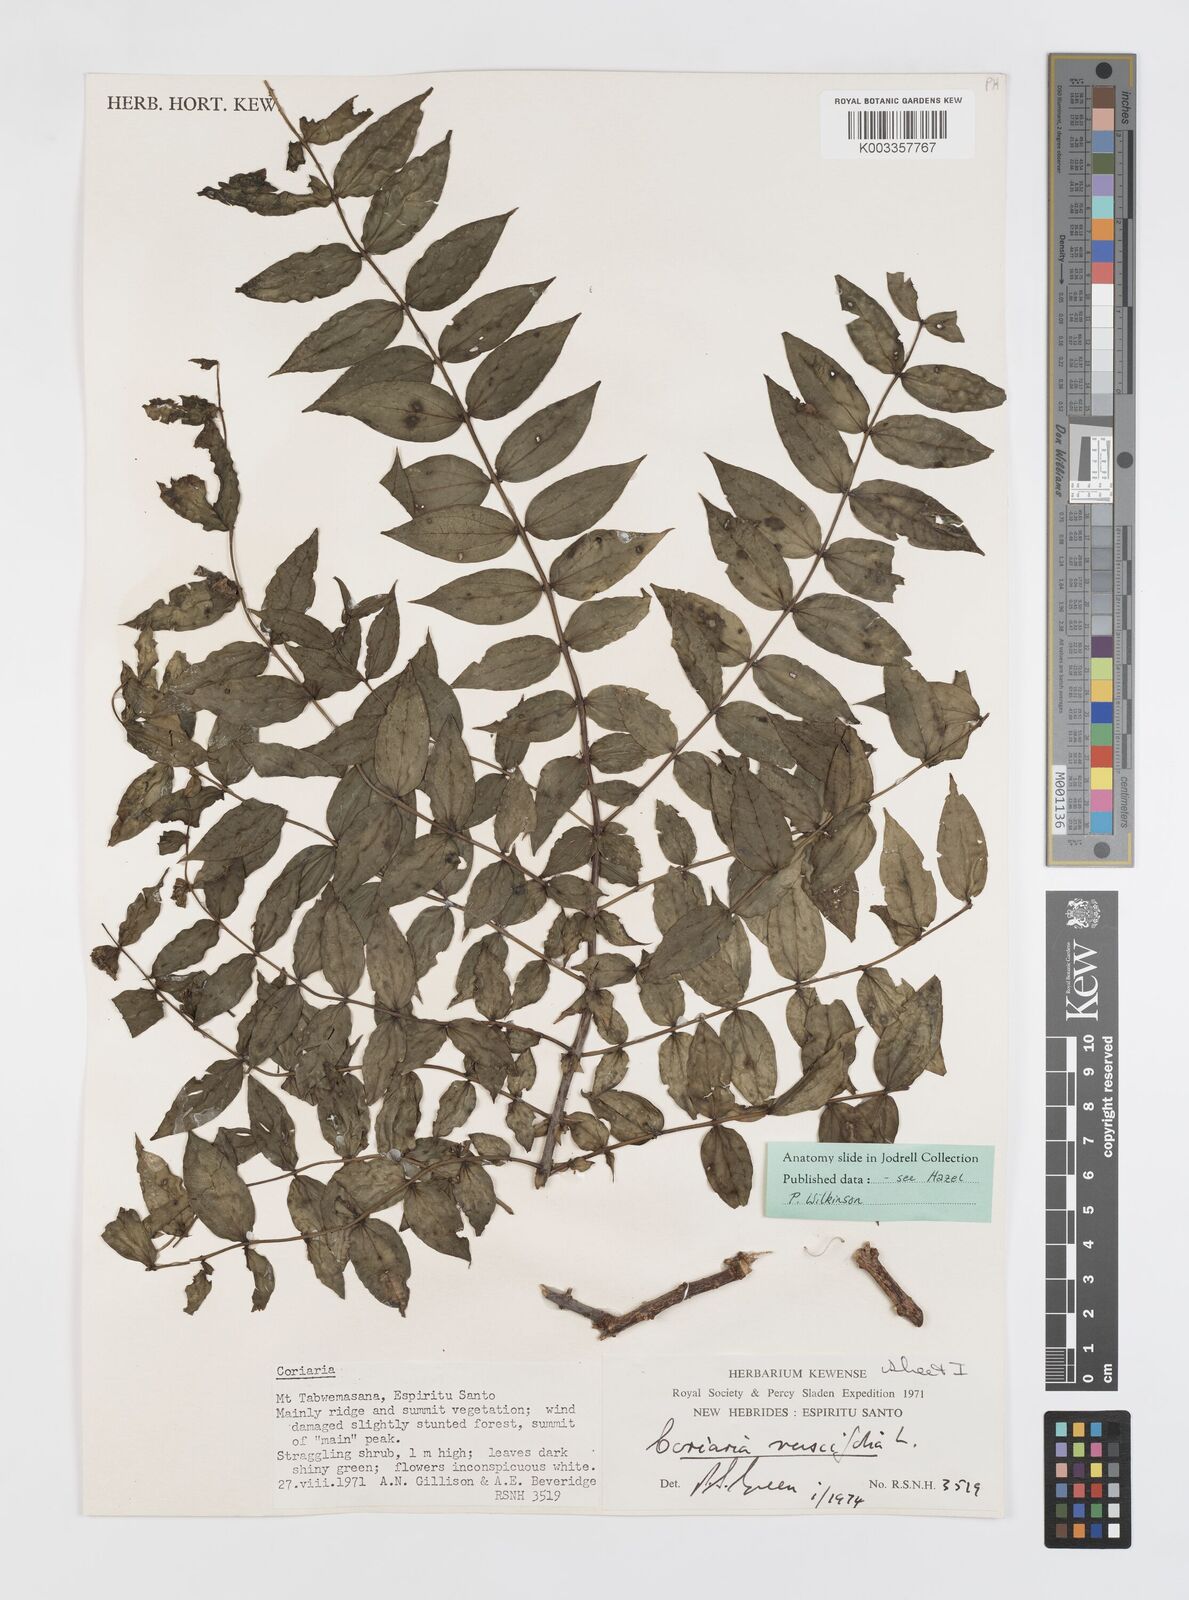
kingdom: Plantae
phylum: Tracheophyta
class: Magnoliopsida
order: Cucurbitales
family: Coriariaceae
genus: Coriaria
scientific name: Coriaria ruscifolia
